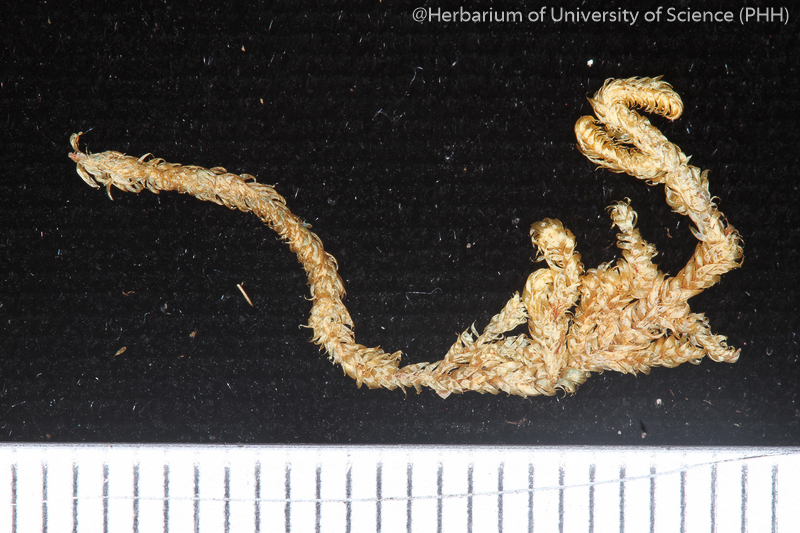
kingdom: Plantae
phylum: Bryophyta
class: Bryopsida
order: Hypnales
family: Pylaisiadelphaceae
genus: Brotherella
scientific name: Brotherella curvirostris
